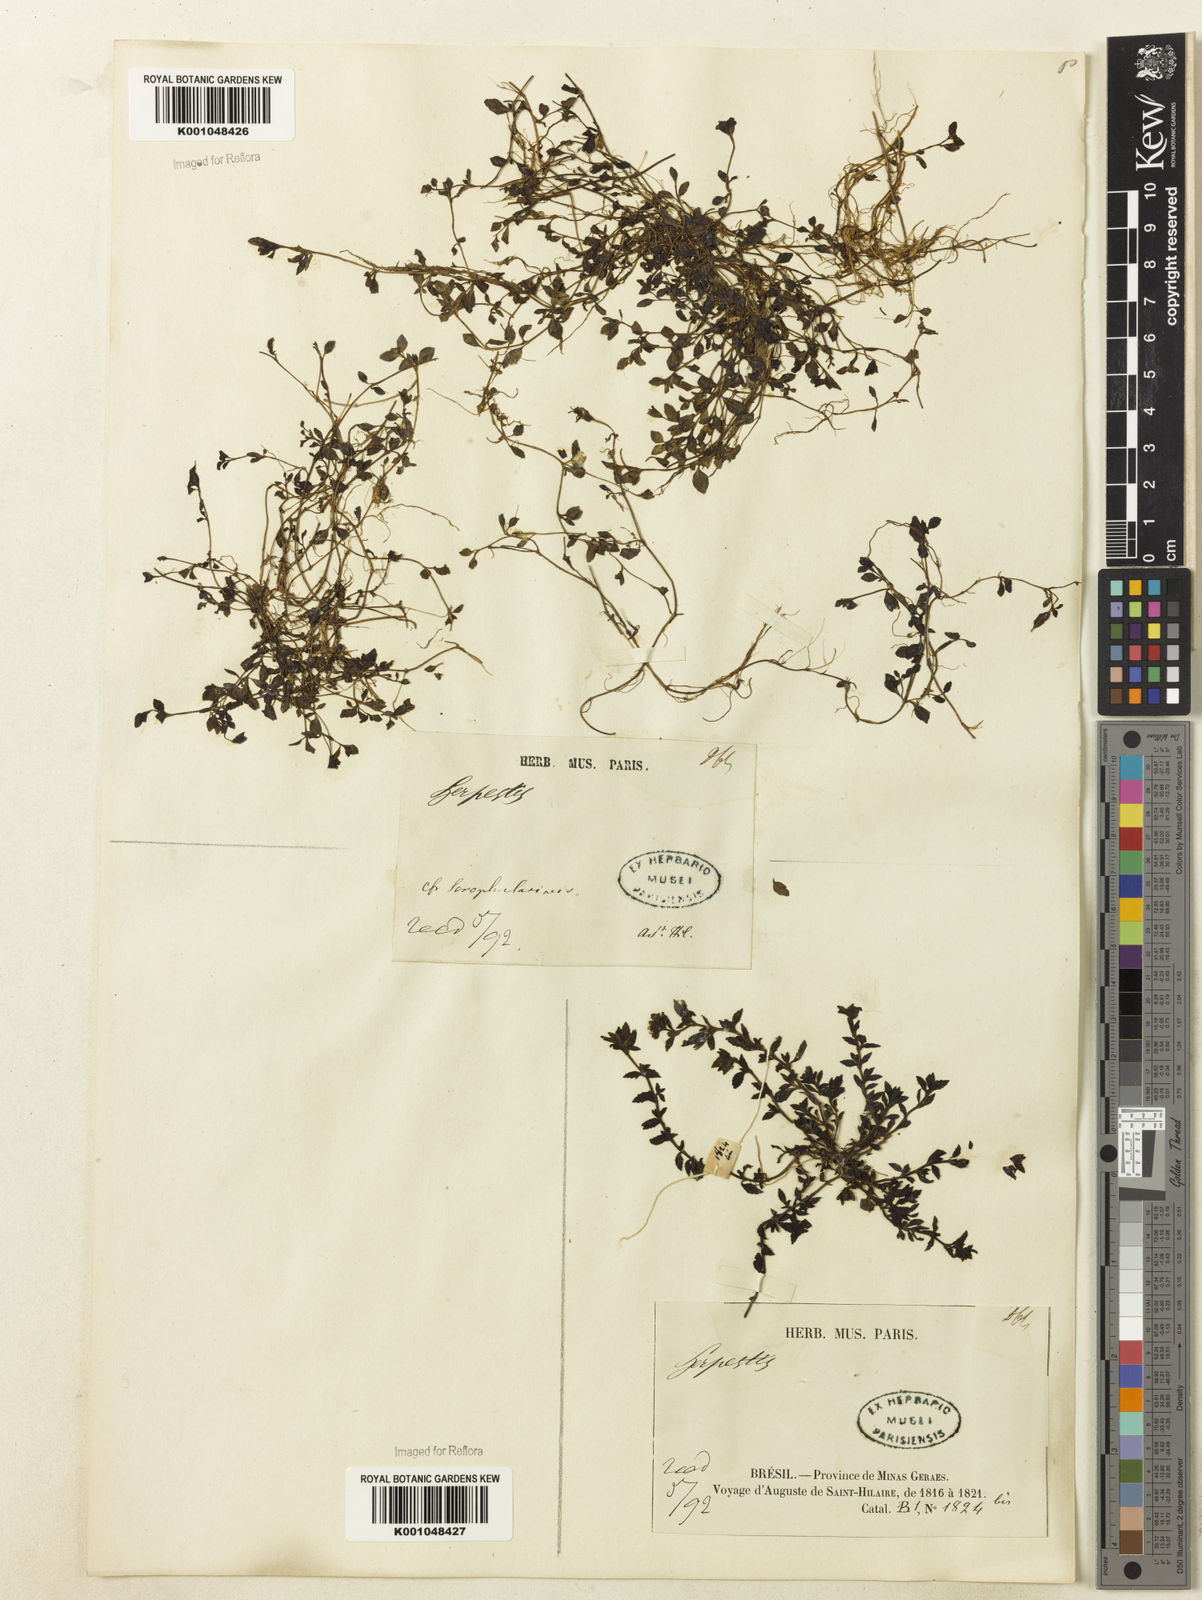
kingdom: Plantae
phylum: Tracheophyta
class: Magnoliopsida
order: Lamiales
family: Plantaginaceae
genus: Mecardonia
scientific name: Mecardonia flagellaris
